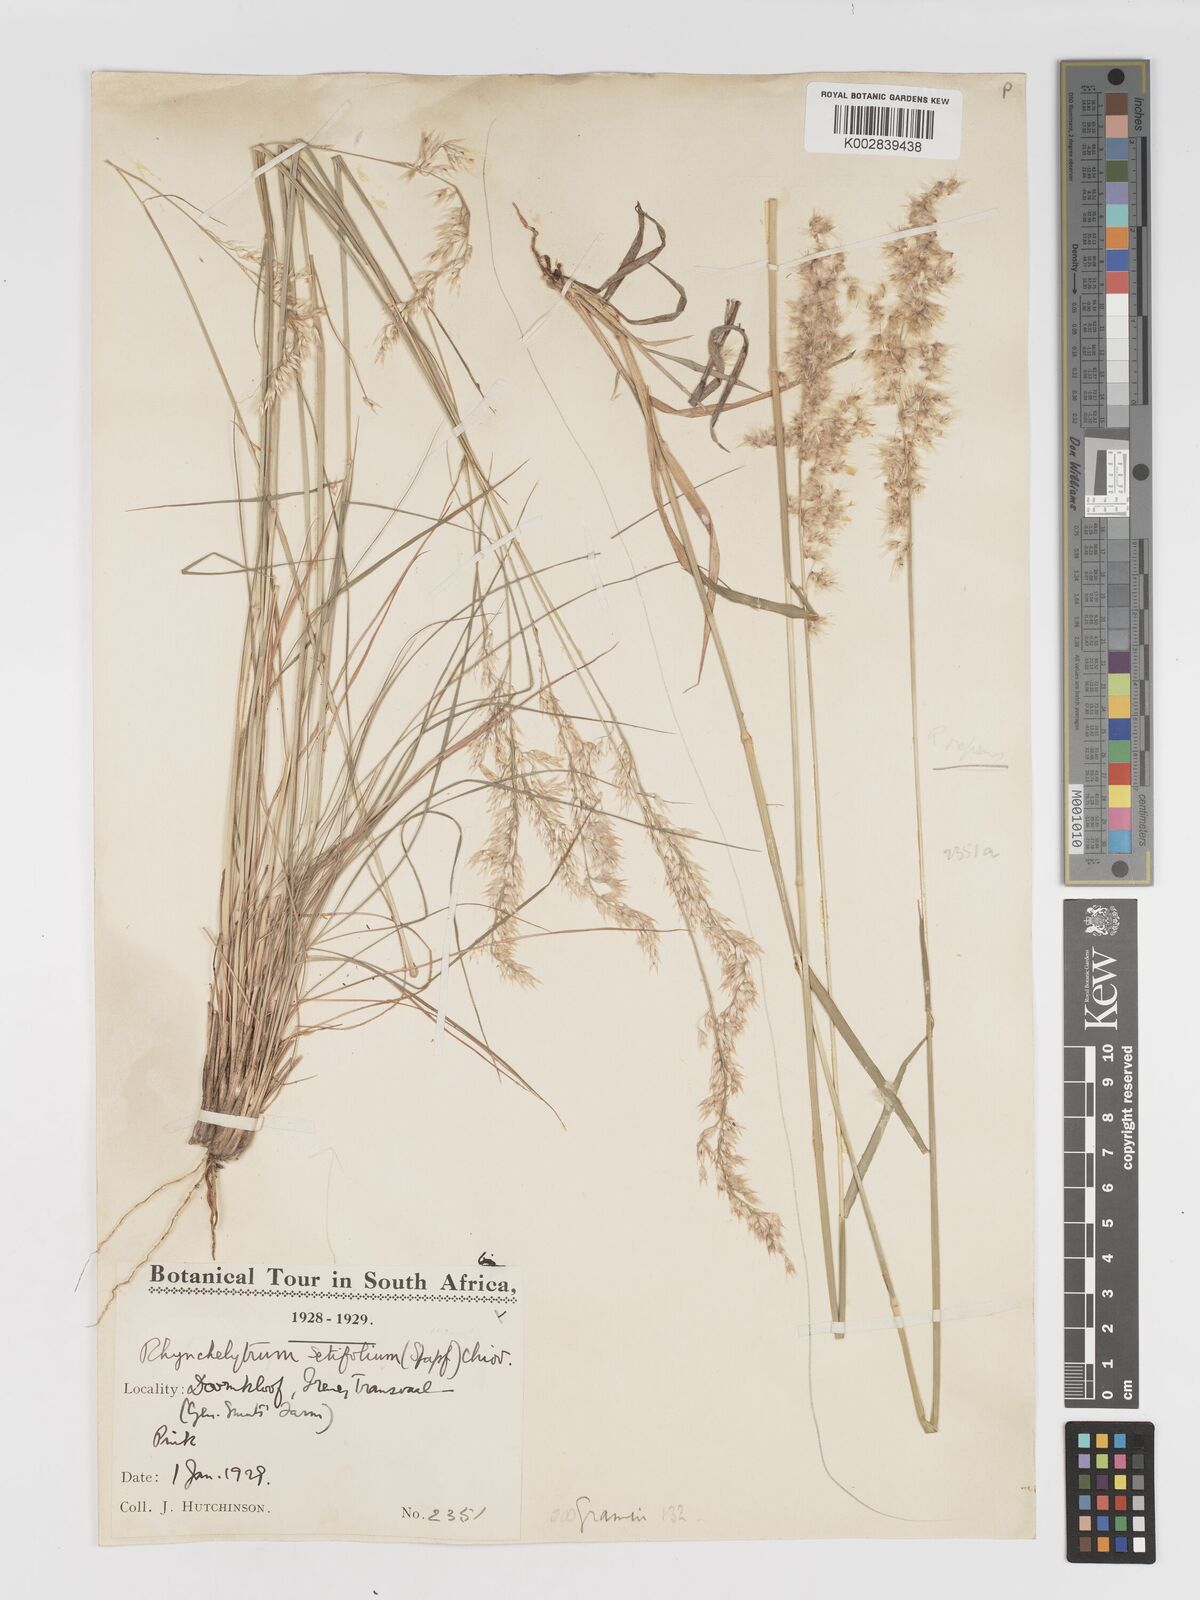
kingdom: Plantae
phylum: Tracheophyta
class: Liliopsida
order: Poales
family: Poaceae
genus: Melinis
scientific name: Melinis nerviglumis
